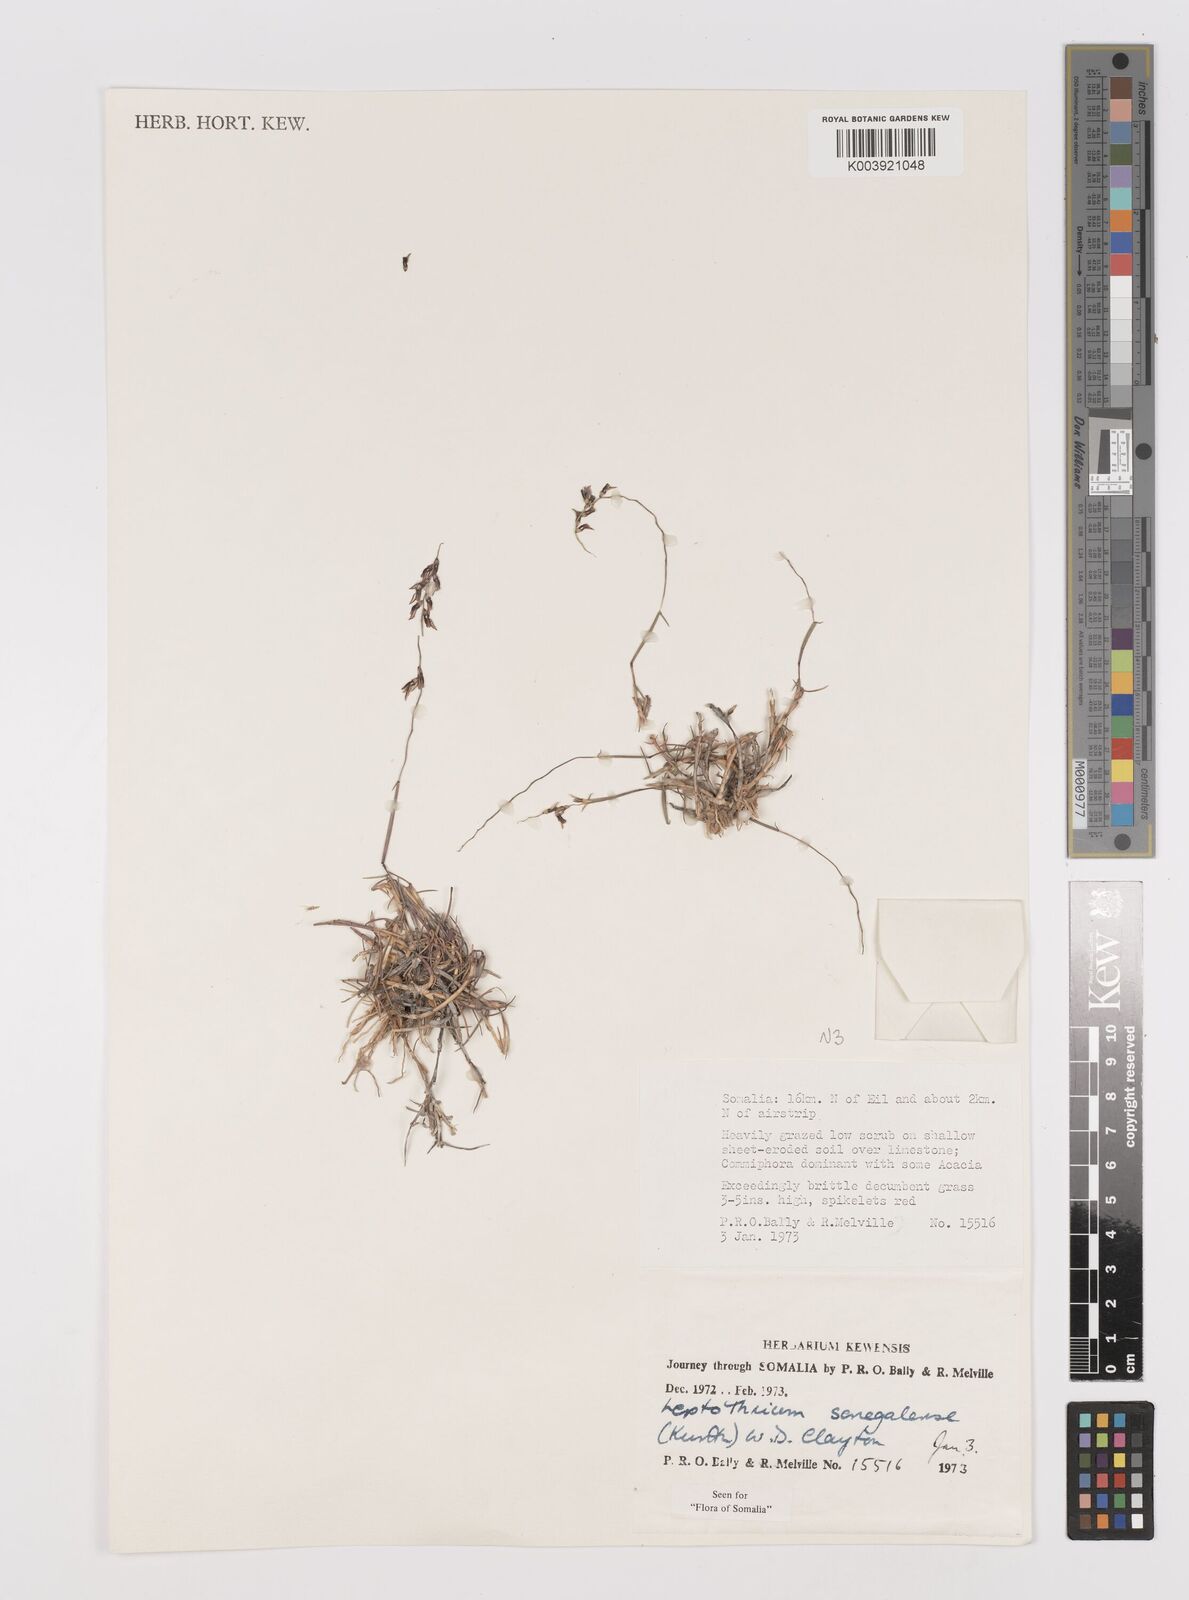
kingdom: Plantae
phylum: Tracheophyta
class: Liliopsida
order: Poales
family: Poaceae
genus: Leptothrium
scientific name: Leptothrium senegalense
